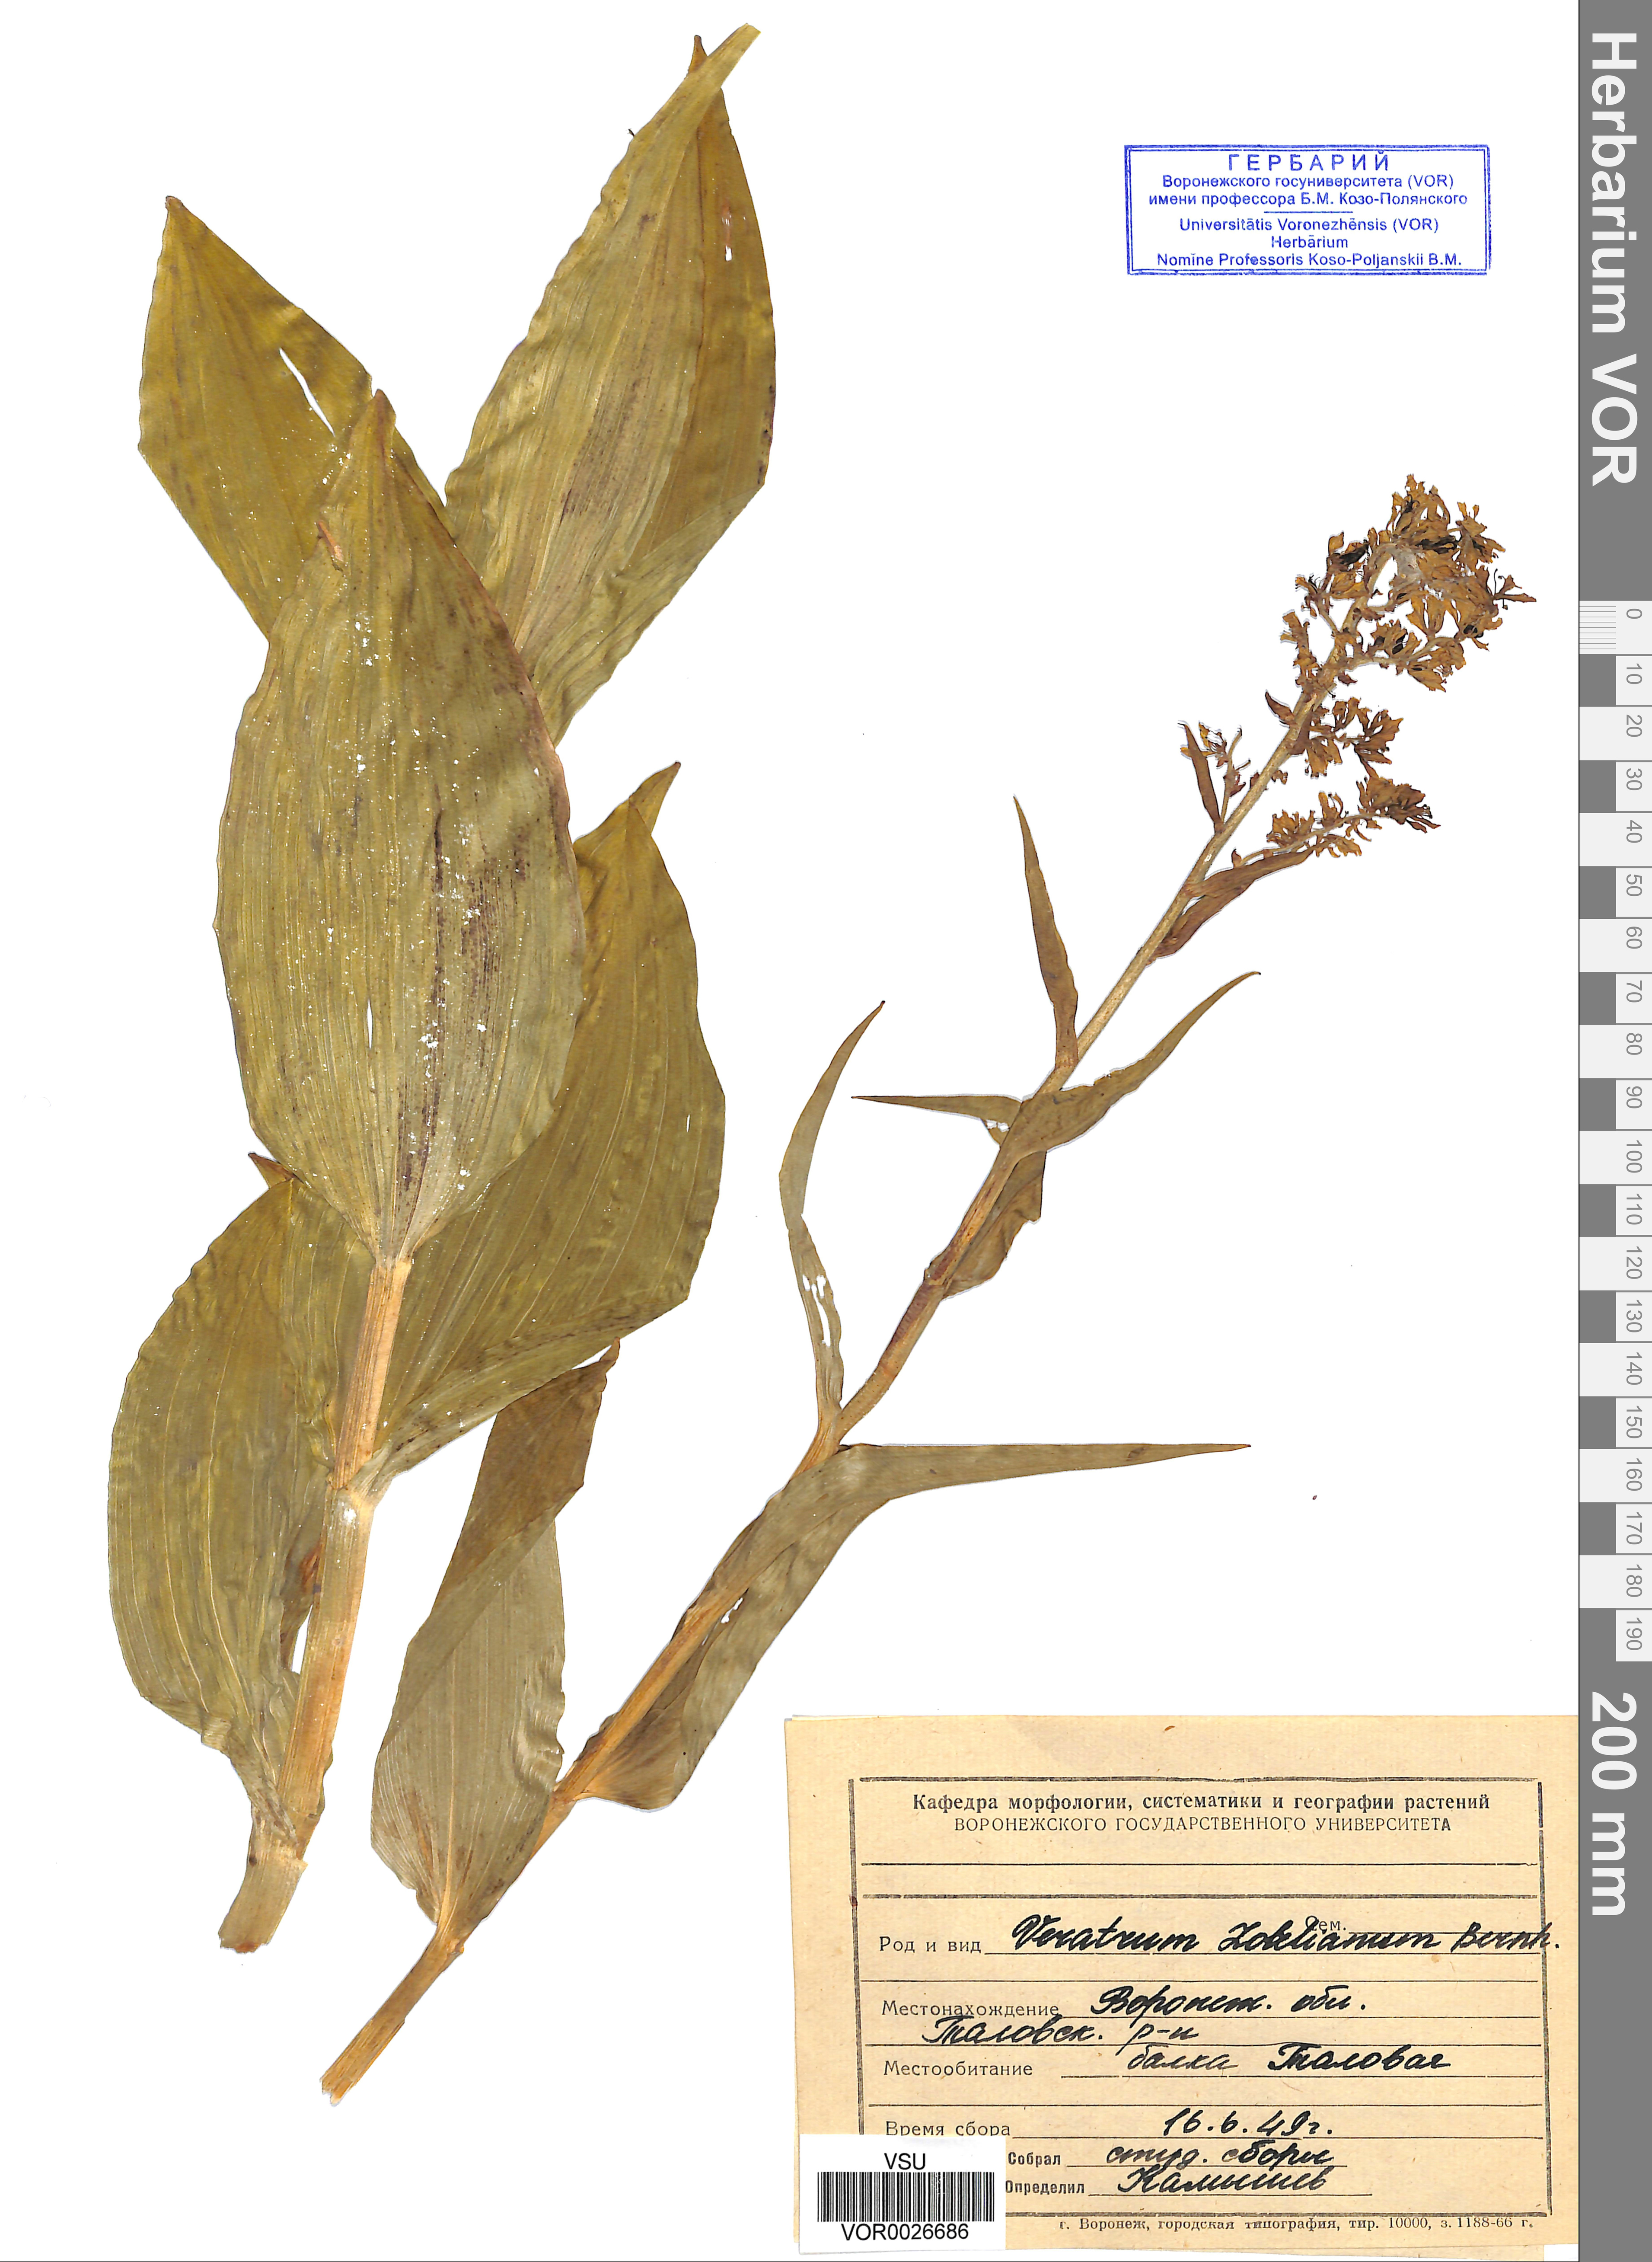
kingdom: Plantae
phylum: Tracheophyta
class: Liliopsida
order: Liliales
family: Melanthiaceae
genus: Veratrum
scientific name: Veratrum lobelianum
